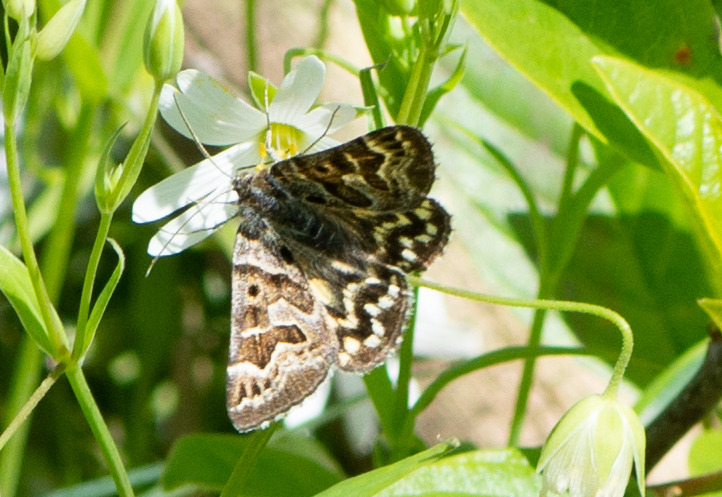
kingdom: Animalia
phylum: Arthropoda
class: Insecta
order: Lepidoptera
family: Erebidae
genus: Callistege
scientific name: Callistege mi
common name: Marmoreret kløverugle
